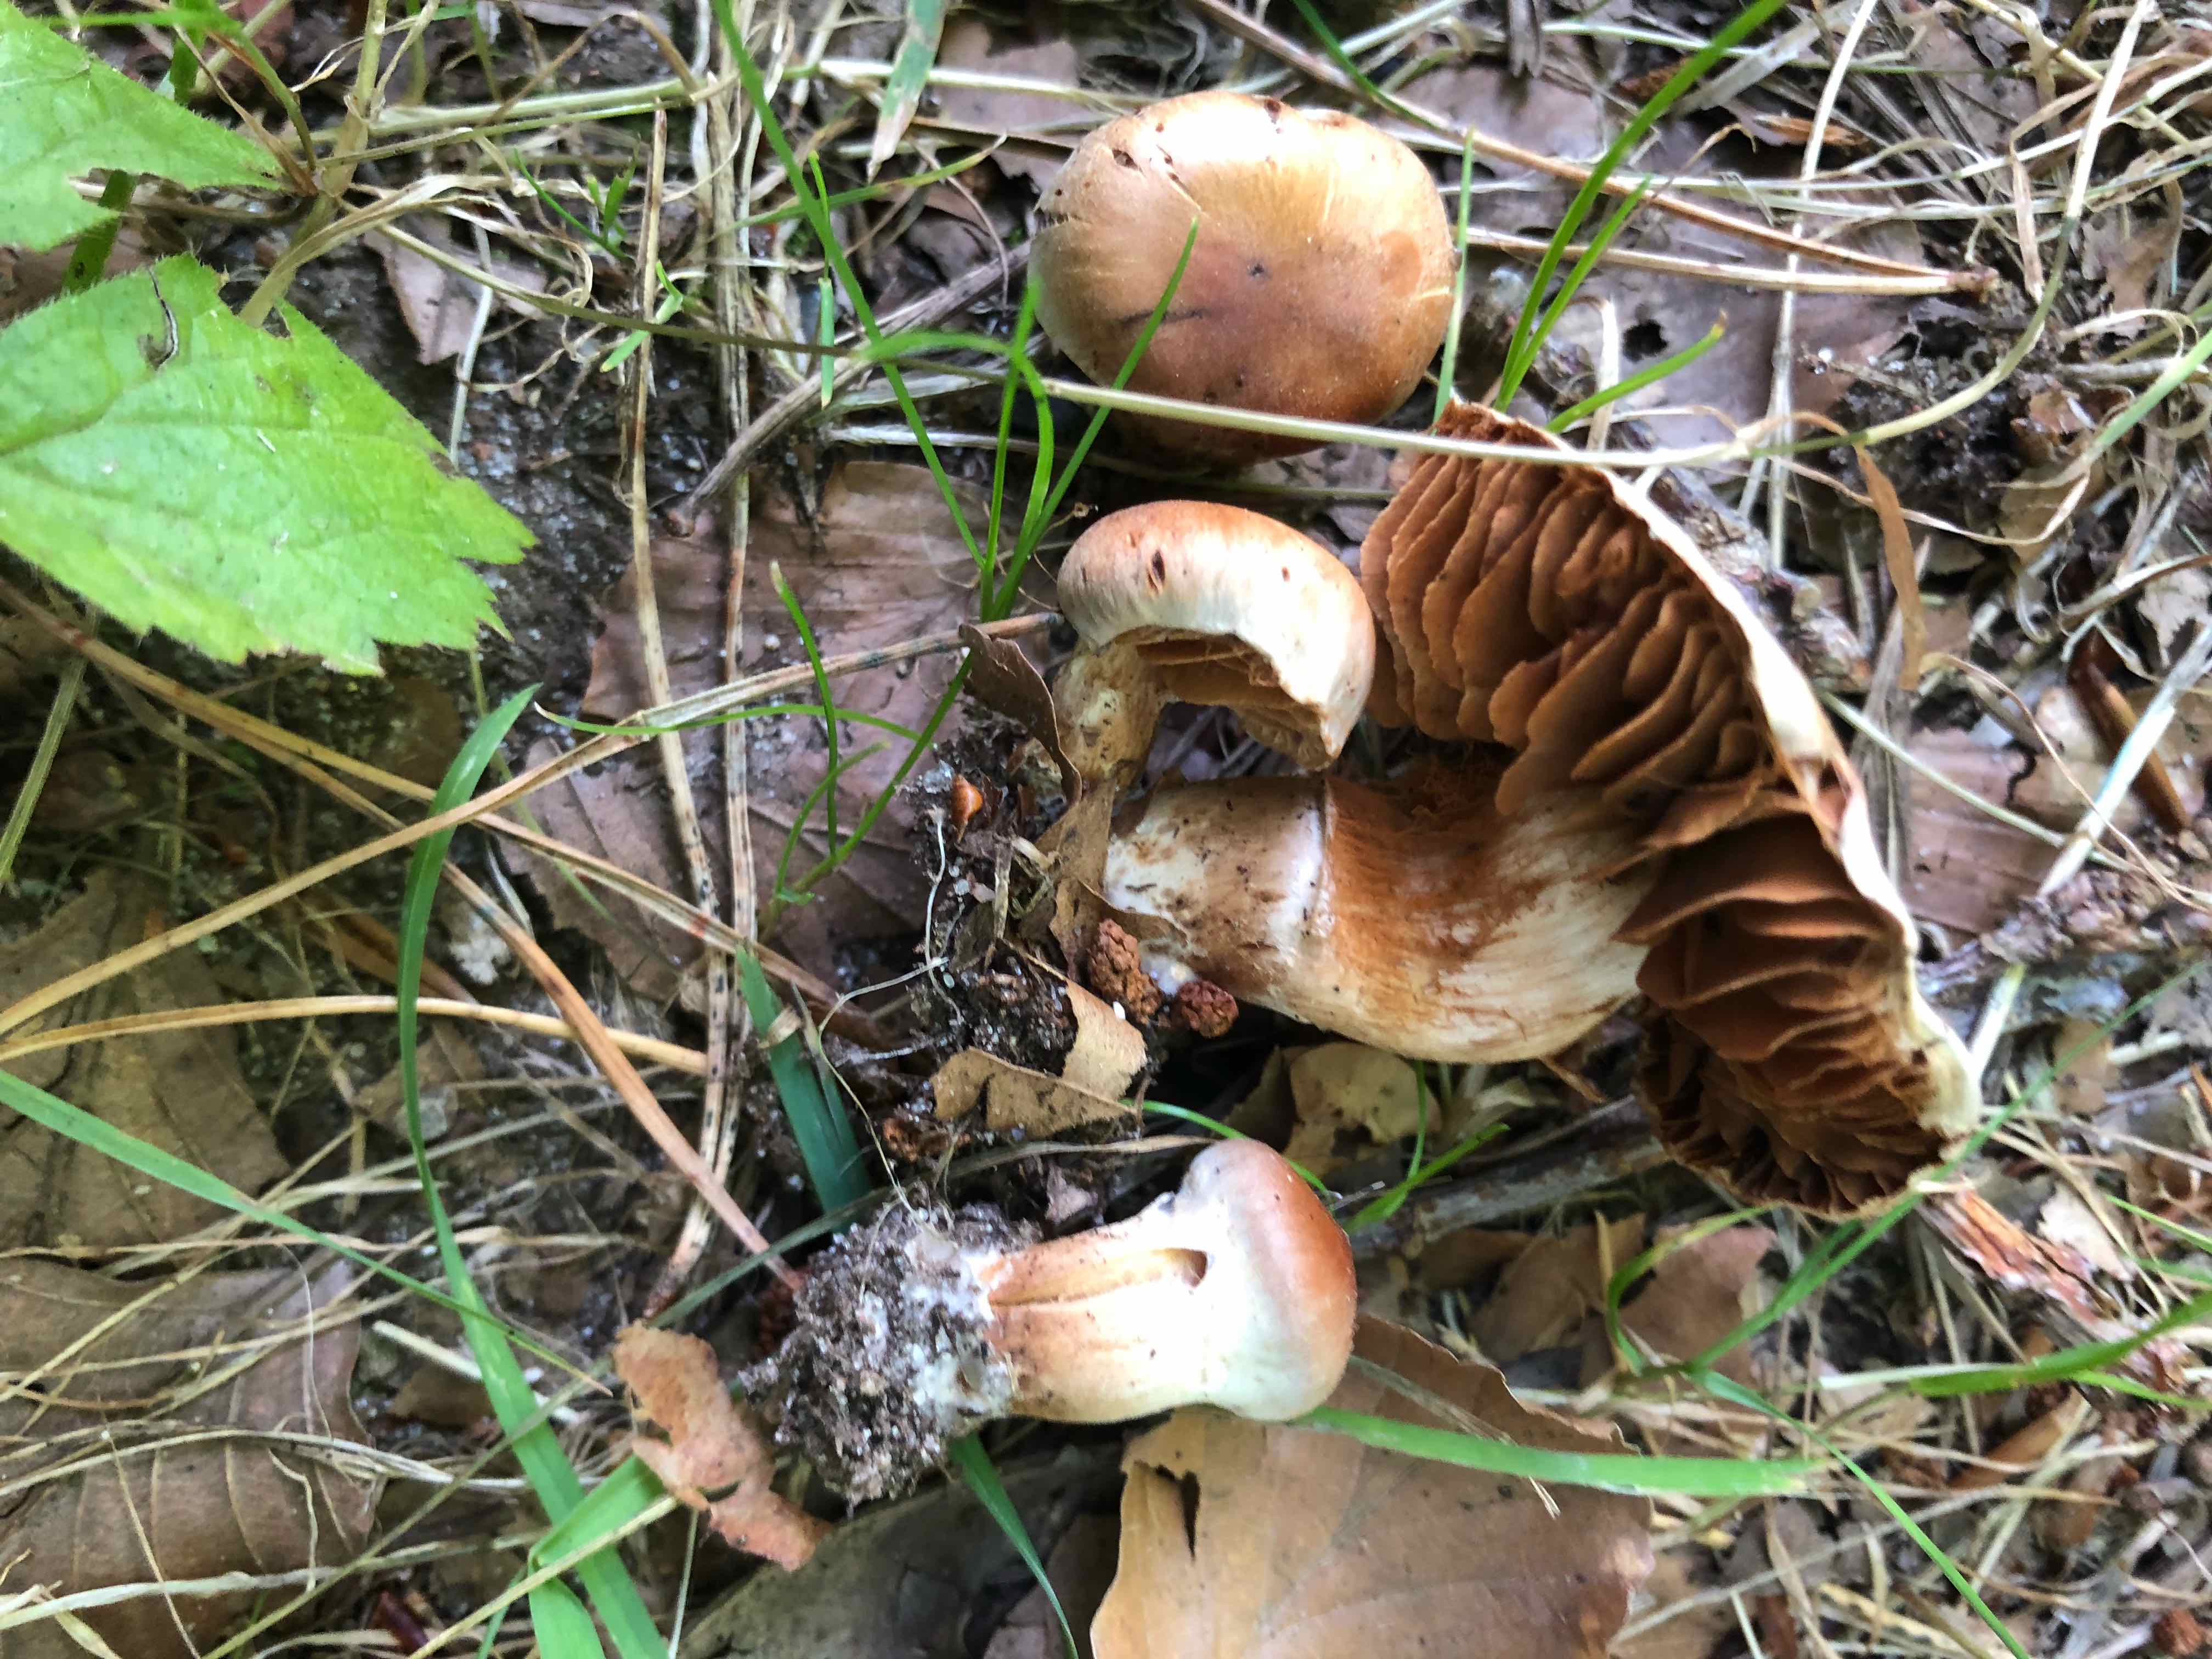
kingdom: Fungi
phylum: Basidiomycota
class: Agaricomycetes
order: Agaricales
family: Cortinariaceae
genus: Cortinarius
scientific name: Cortinarius hinnuleus
